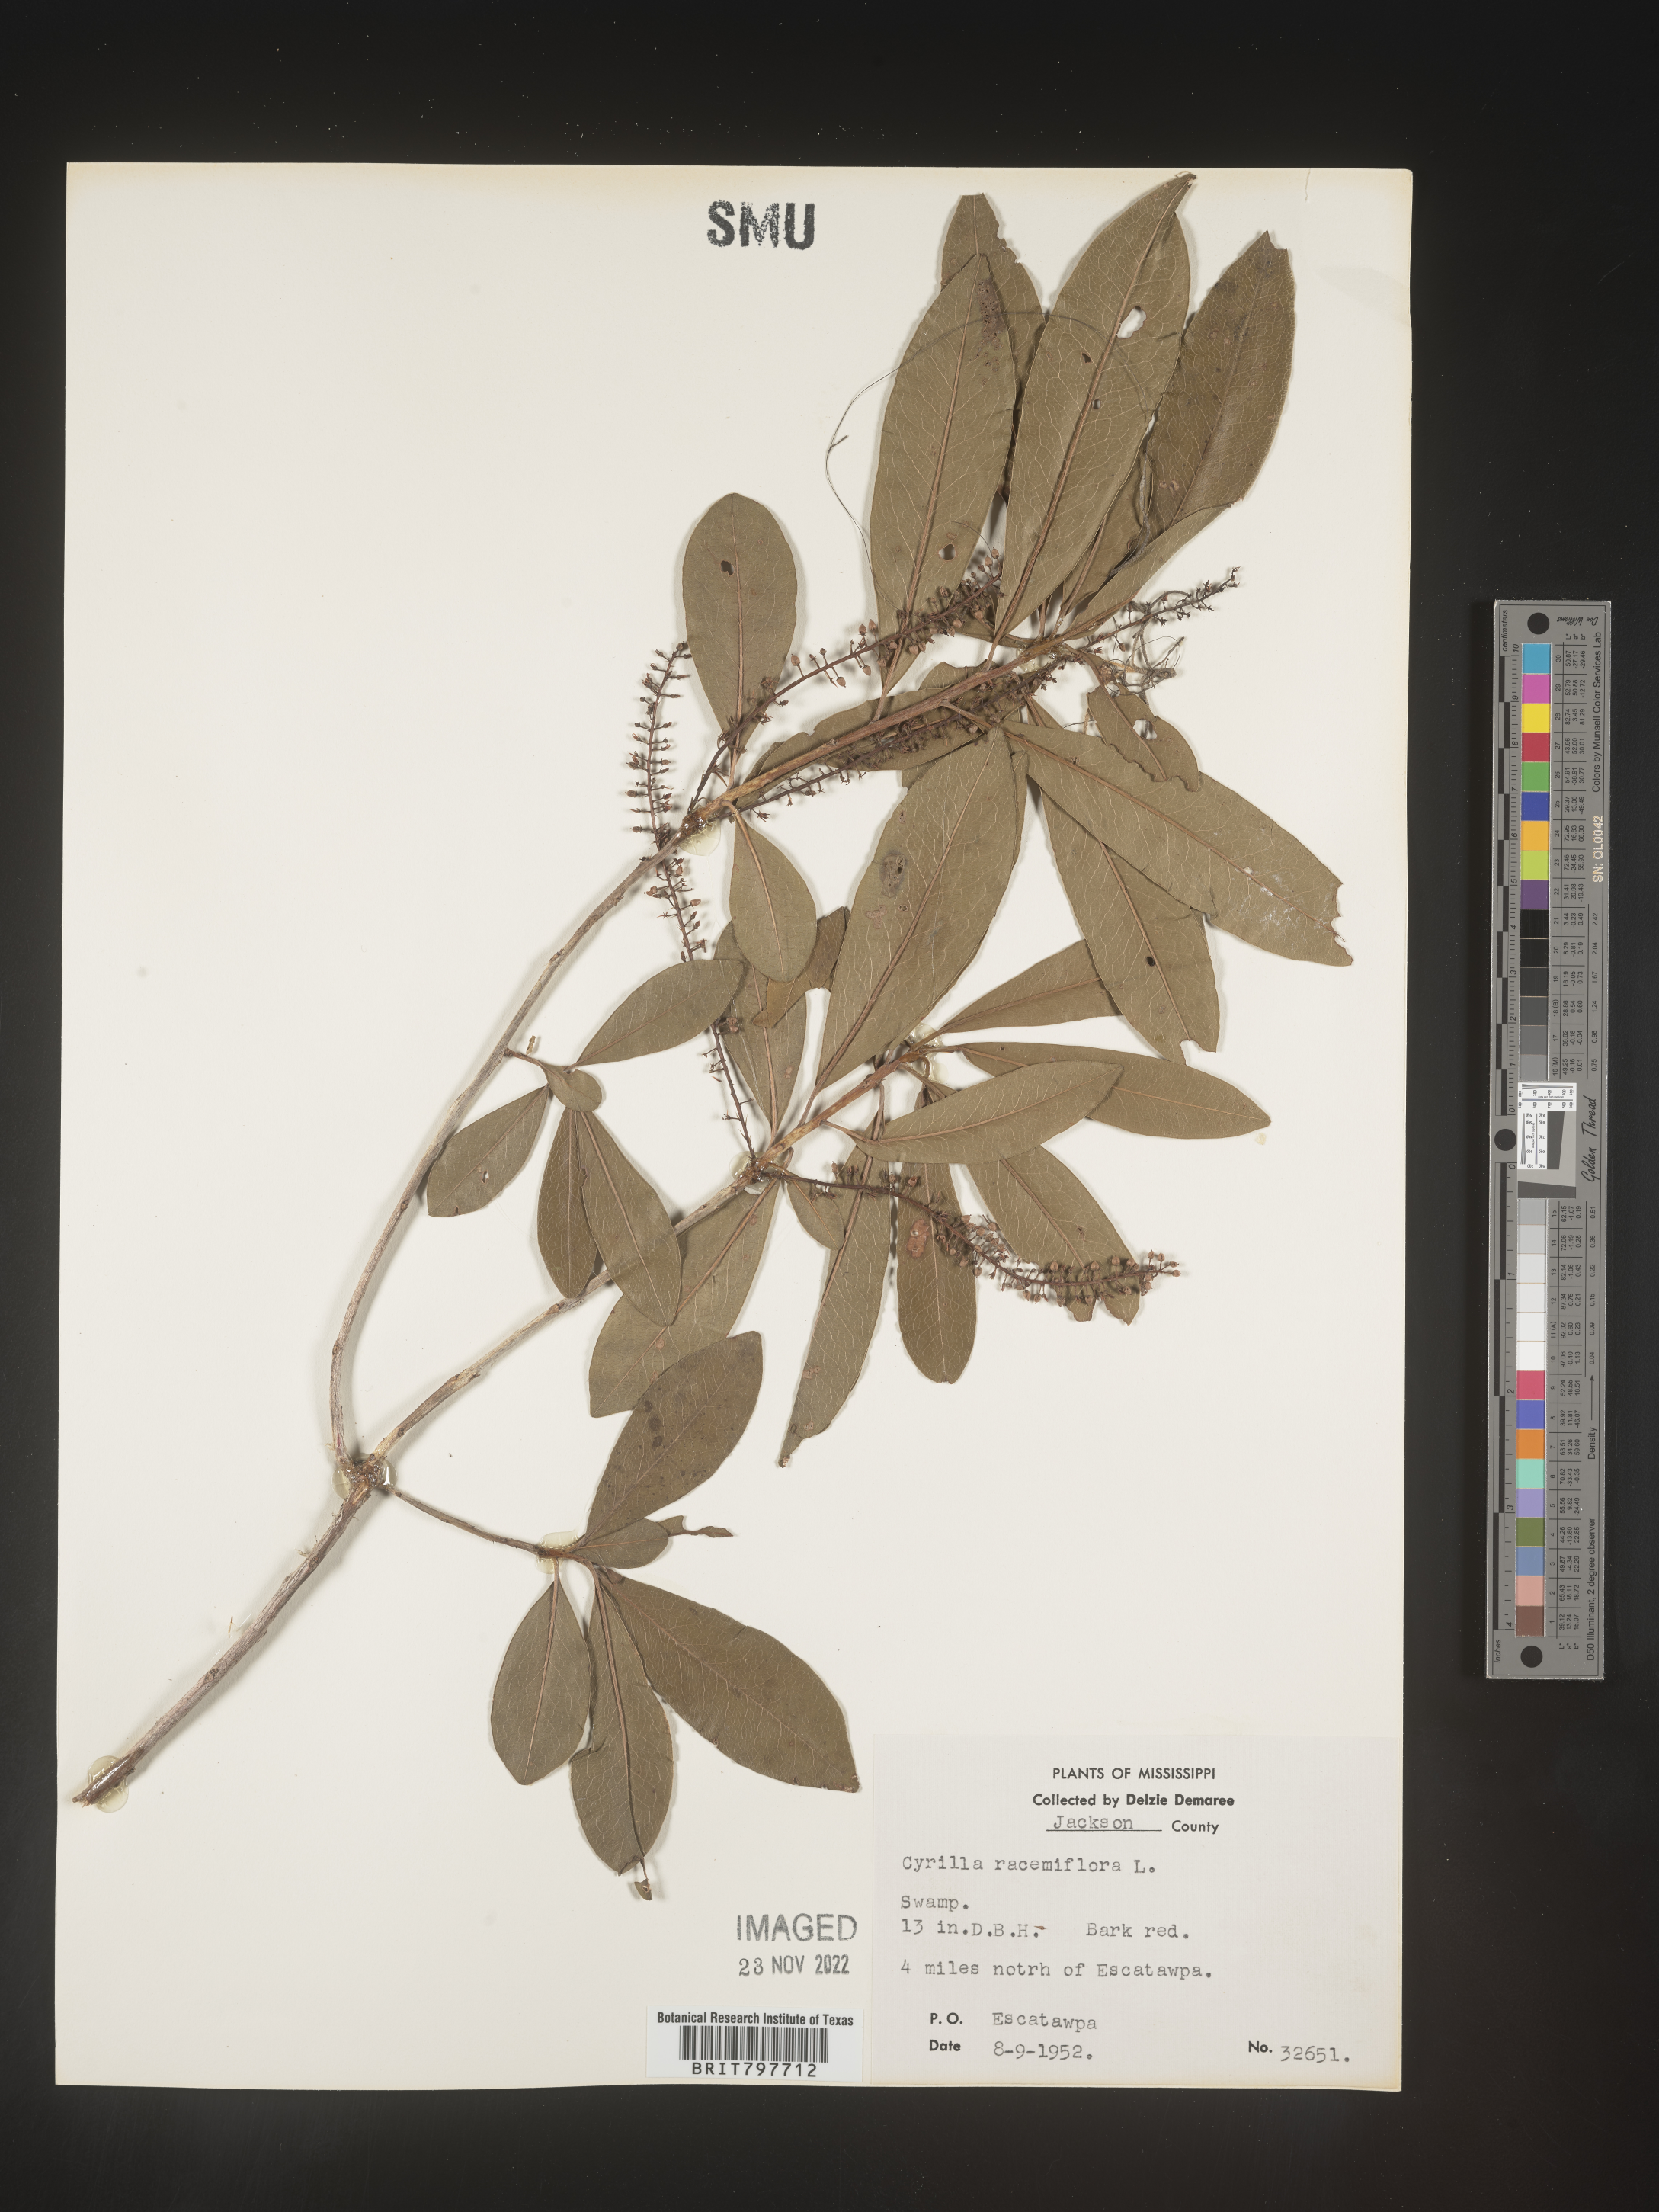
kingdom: Plantae
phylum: Tracheophyta
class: Magnoliopsida
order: Ericales
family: Cyrillaceae
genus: Cyrilla
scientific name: Cyrilla racemiflora
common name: Black titi
